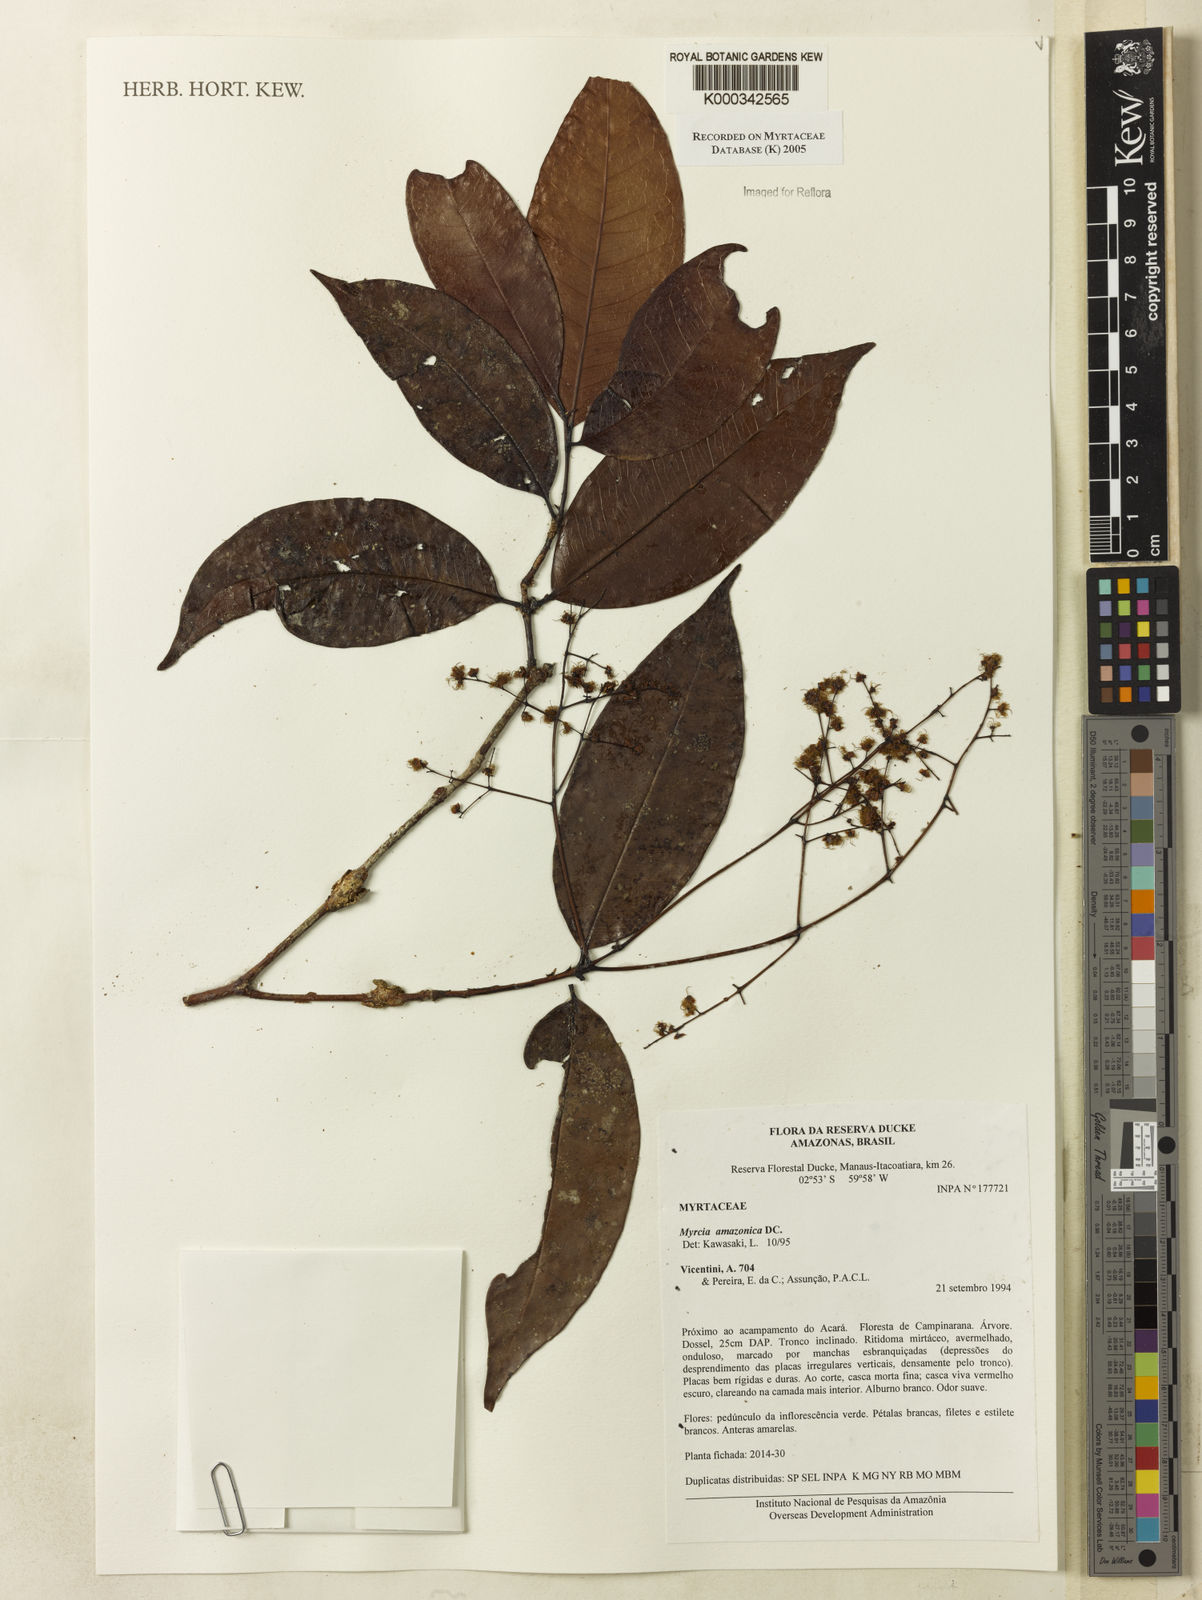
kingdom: Plantae
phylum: Tracheophyta
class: Magnoliopsida
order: Myrtales
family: Myrtaceae
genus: Myrcia
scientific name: Myrcia amazonica
